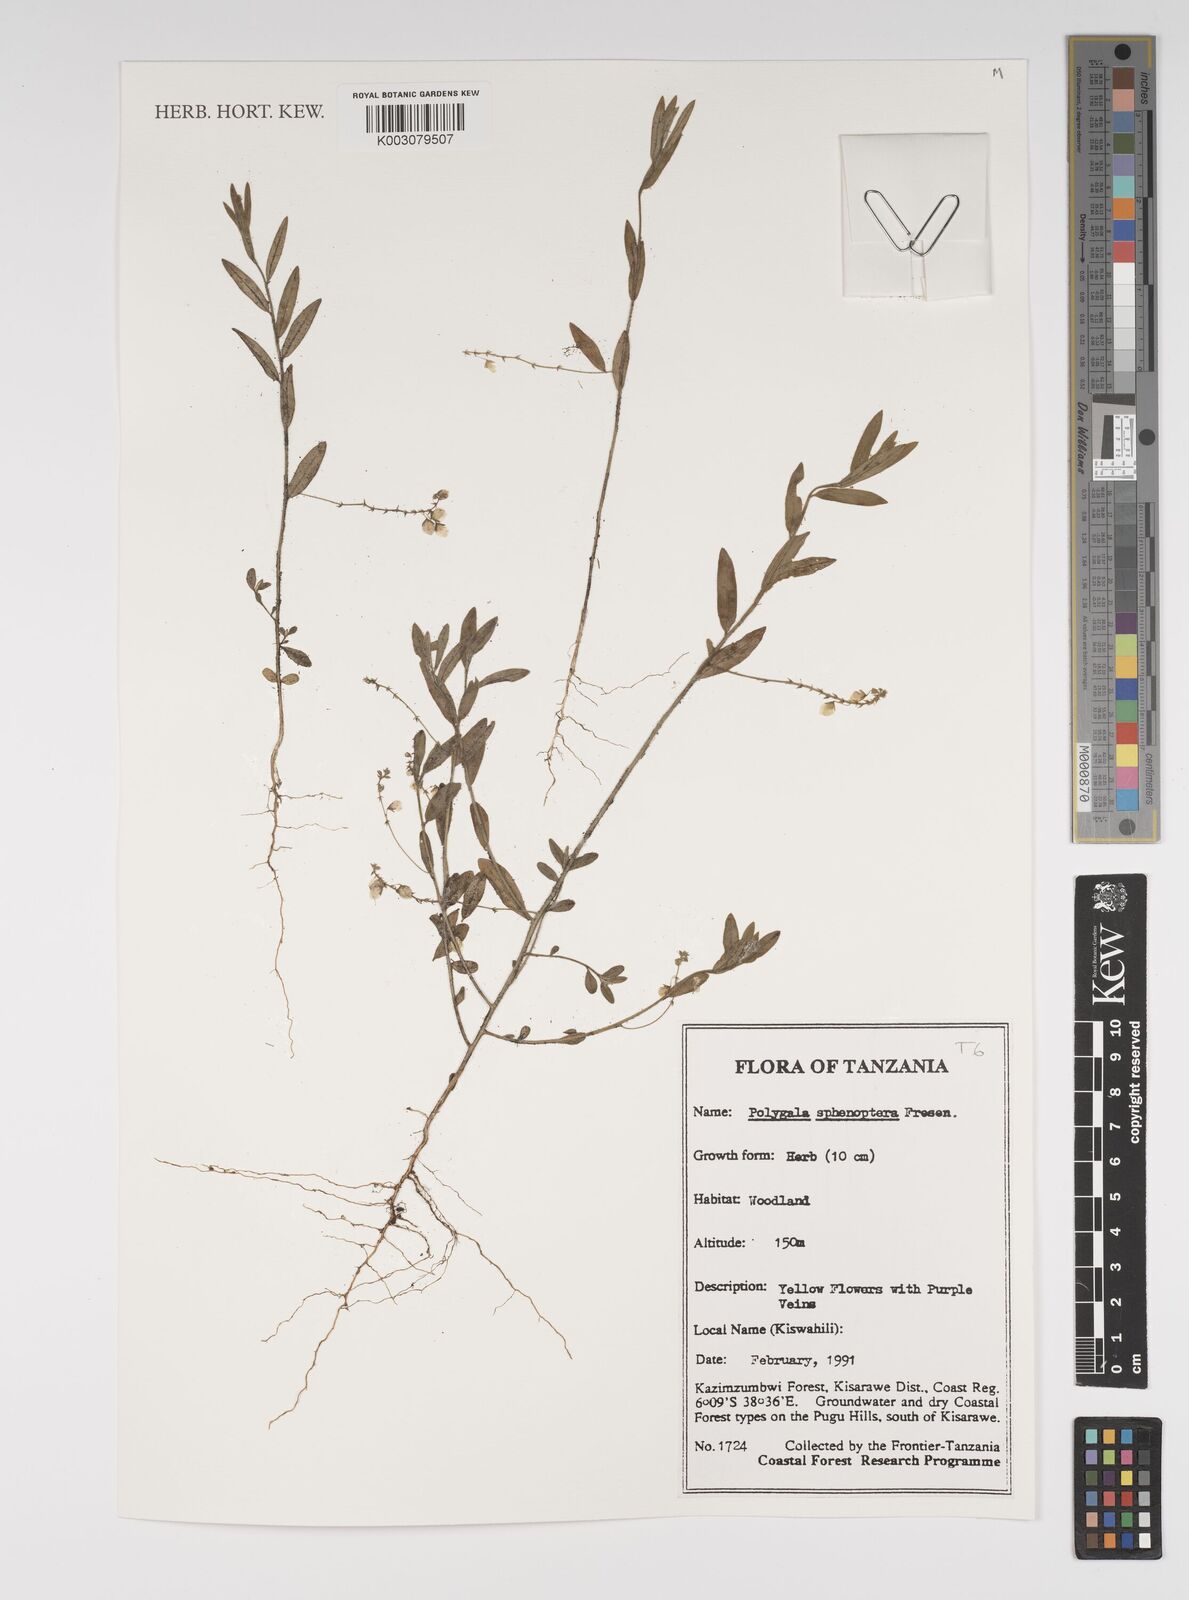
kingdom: Plantae
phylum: Tracheophyta
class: Magnoliopsida
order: Fabales
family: Polygalaceae
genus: Polygala
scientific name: Polygala sphenoptera
